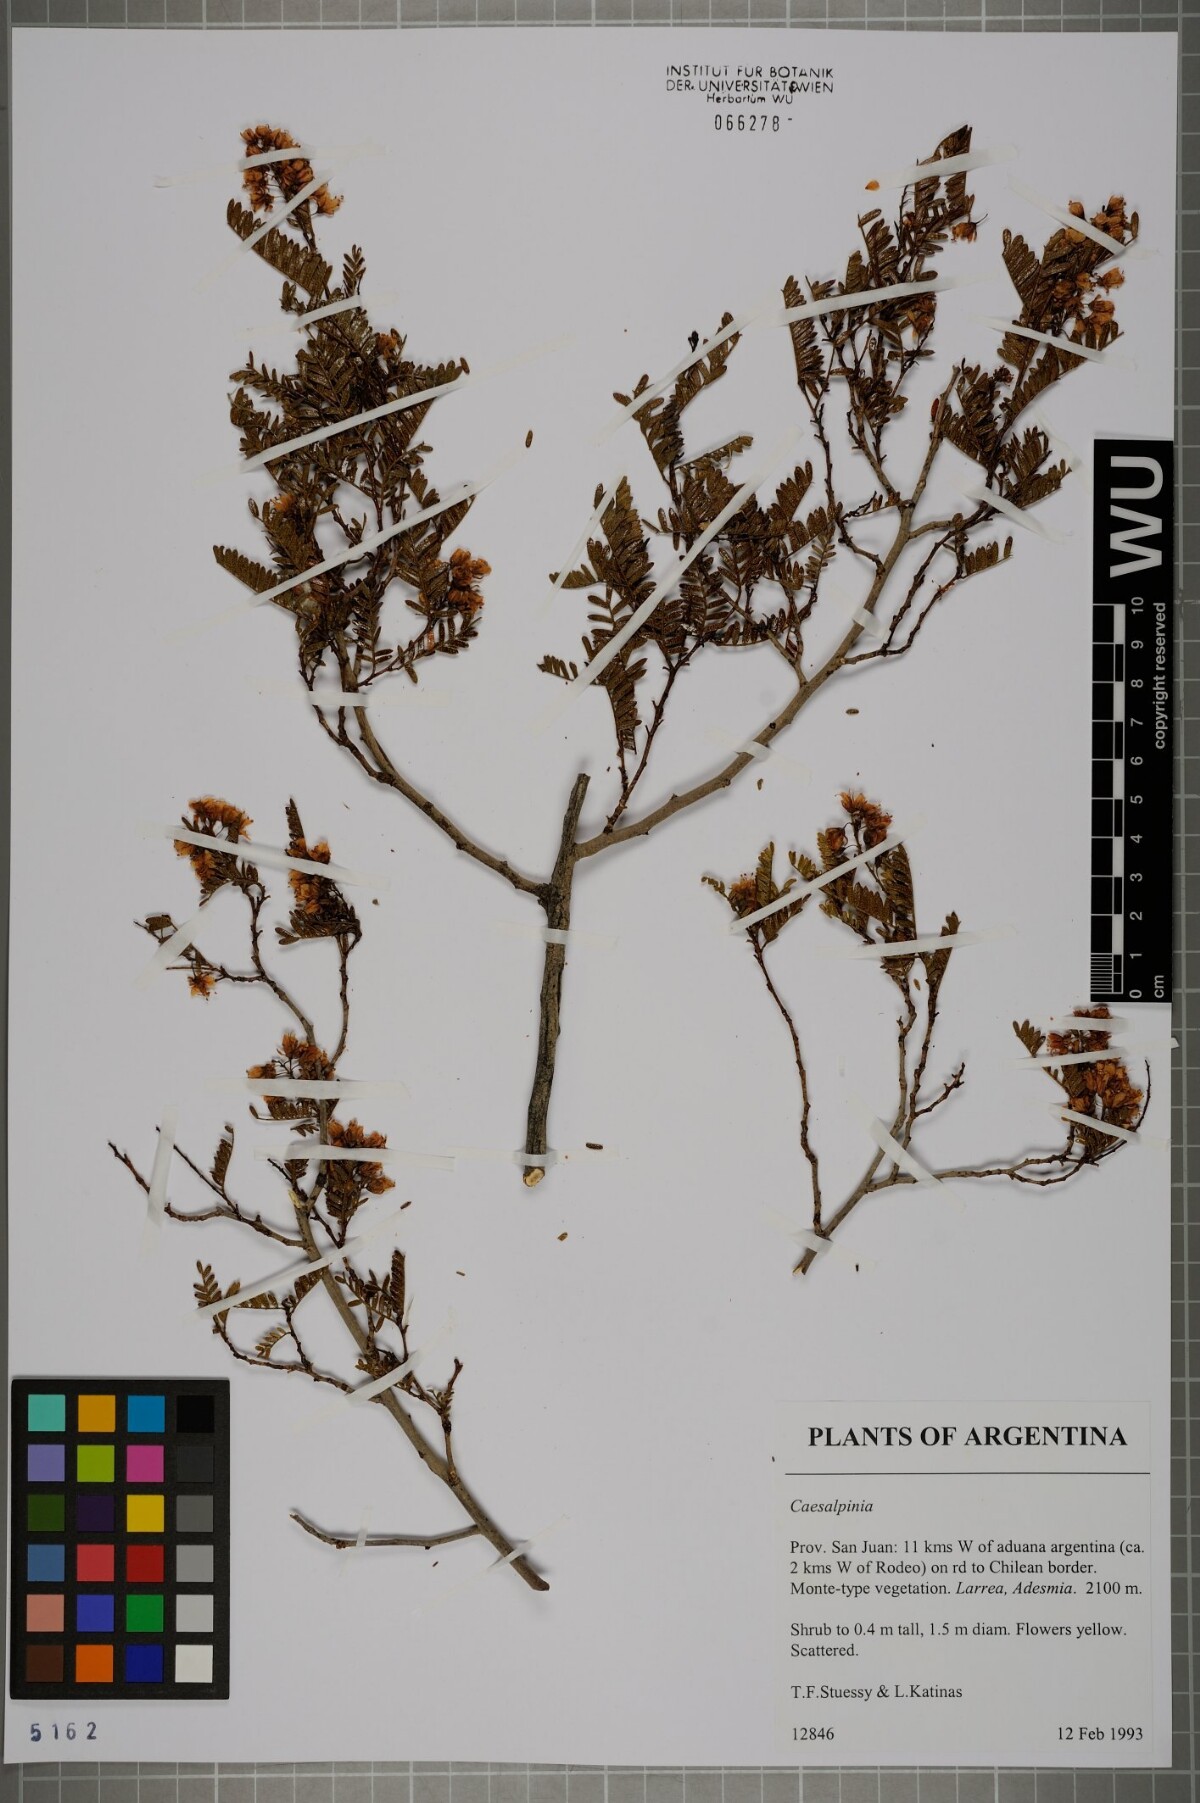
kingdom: Plantae
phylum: Tracheophyta
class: Magnoliopsida
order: Fabales
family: Fabaceae
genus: Caesalpinia
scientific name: Caesalpinia
